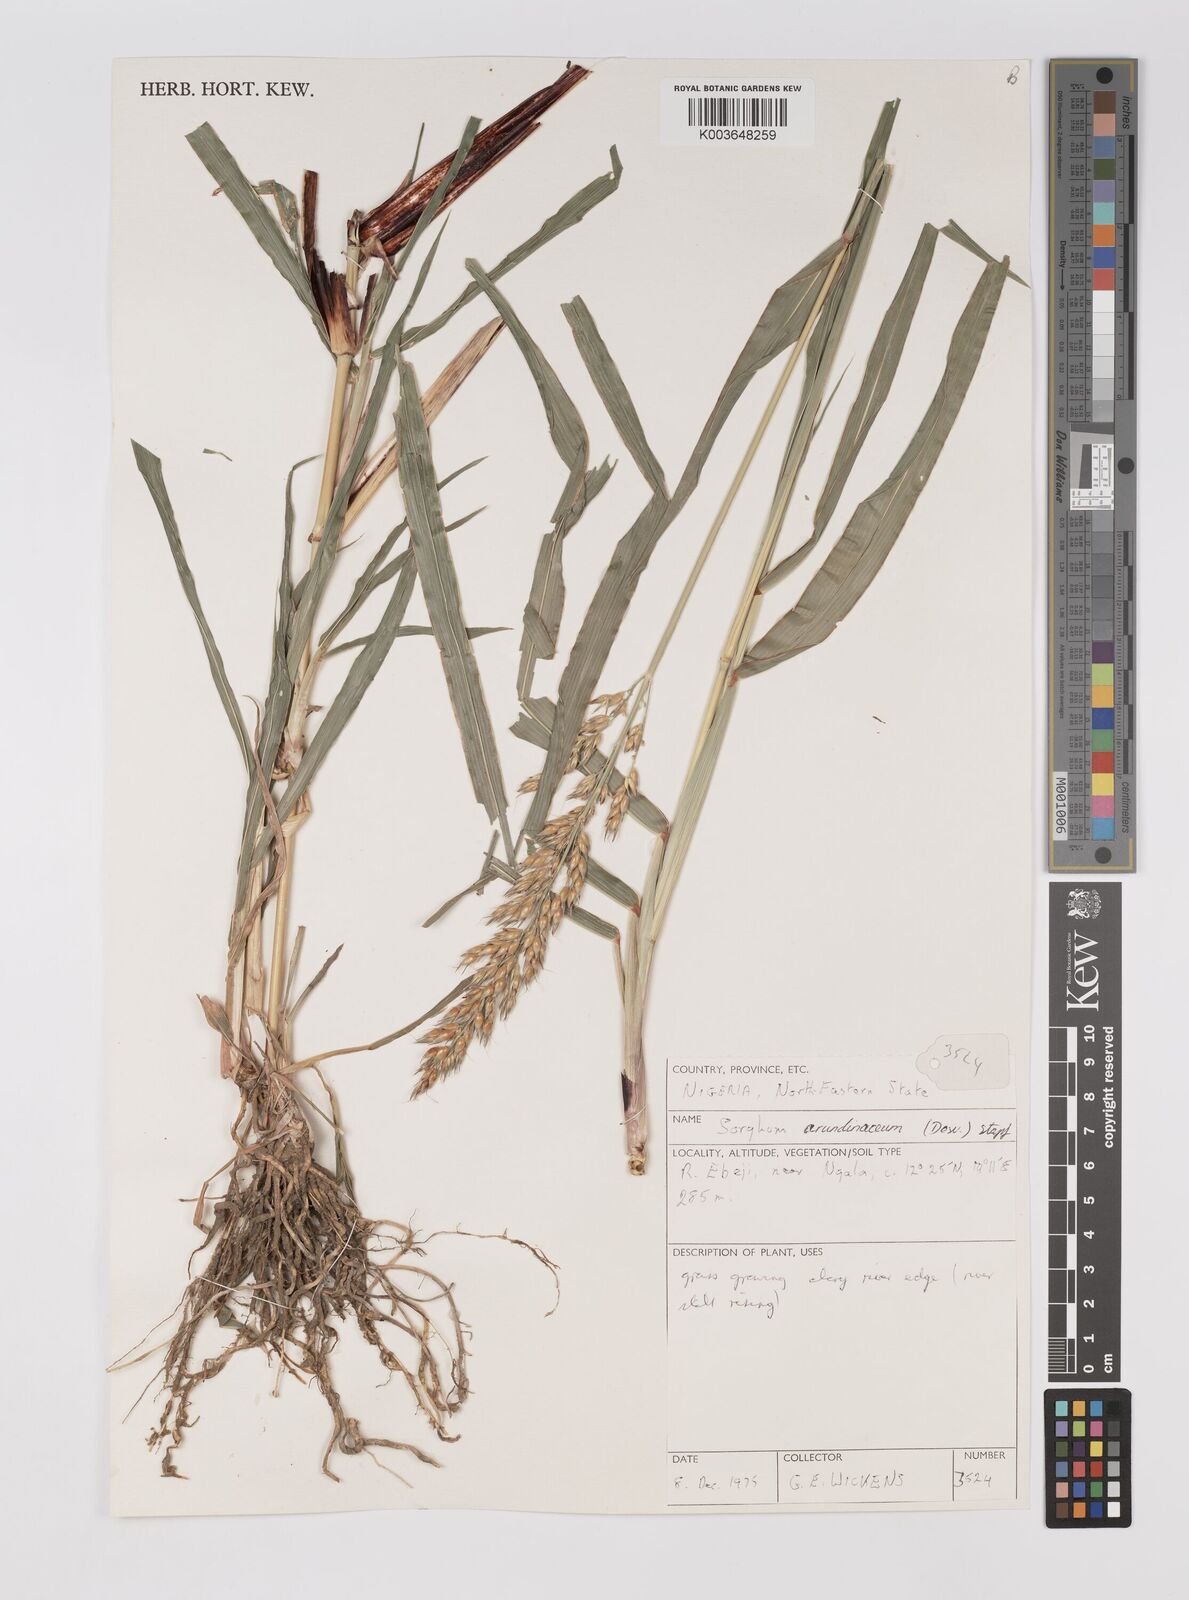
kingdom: Plantae
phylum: Tracheophyta
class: Liliopsida
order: Poales
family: Poaceae
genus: Sorghum
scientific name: Sorghum arundinaceum
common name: Sorghum
